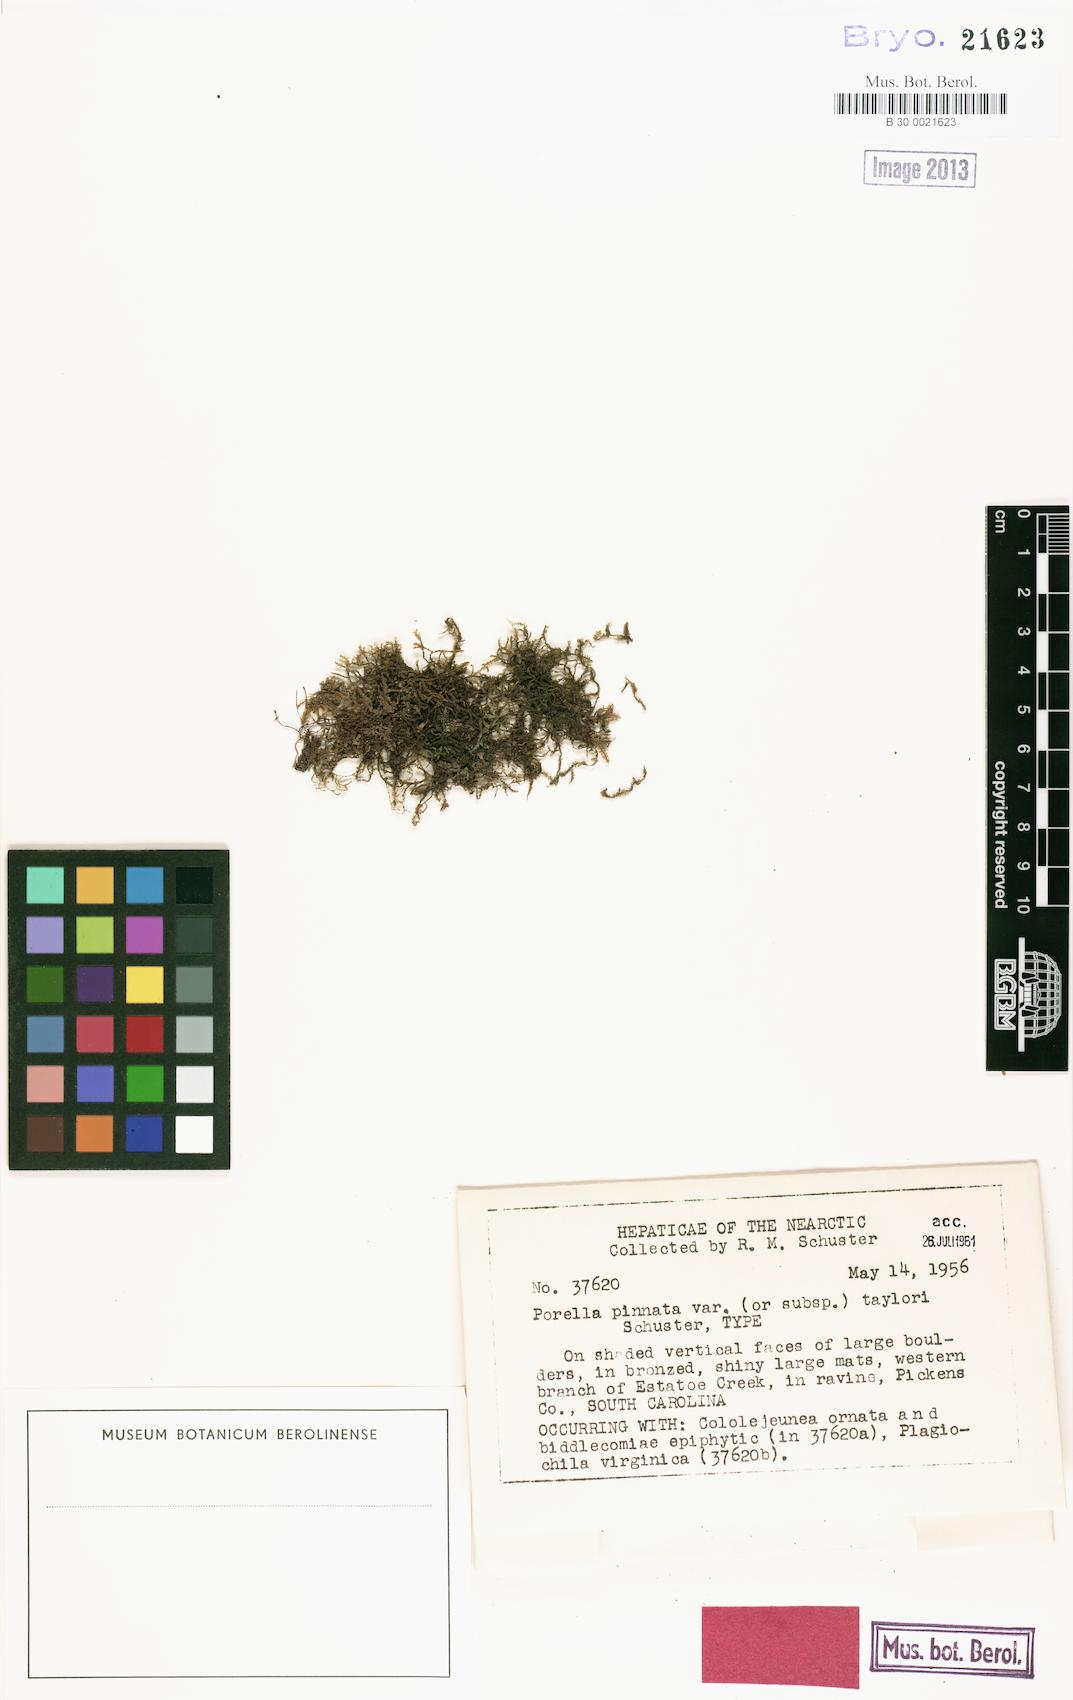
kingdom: Plantae
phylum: Marchantiophyta
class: Jungermanniopsida
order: Porellales
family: Porellaceae
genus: Porella
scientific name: Porella pinnata
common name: Pinnate scalewort
